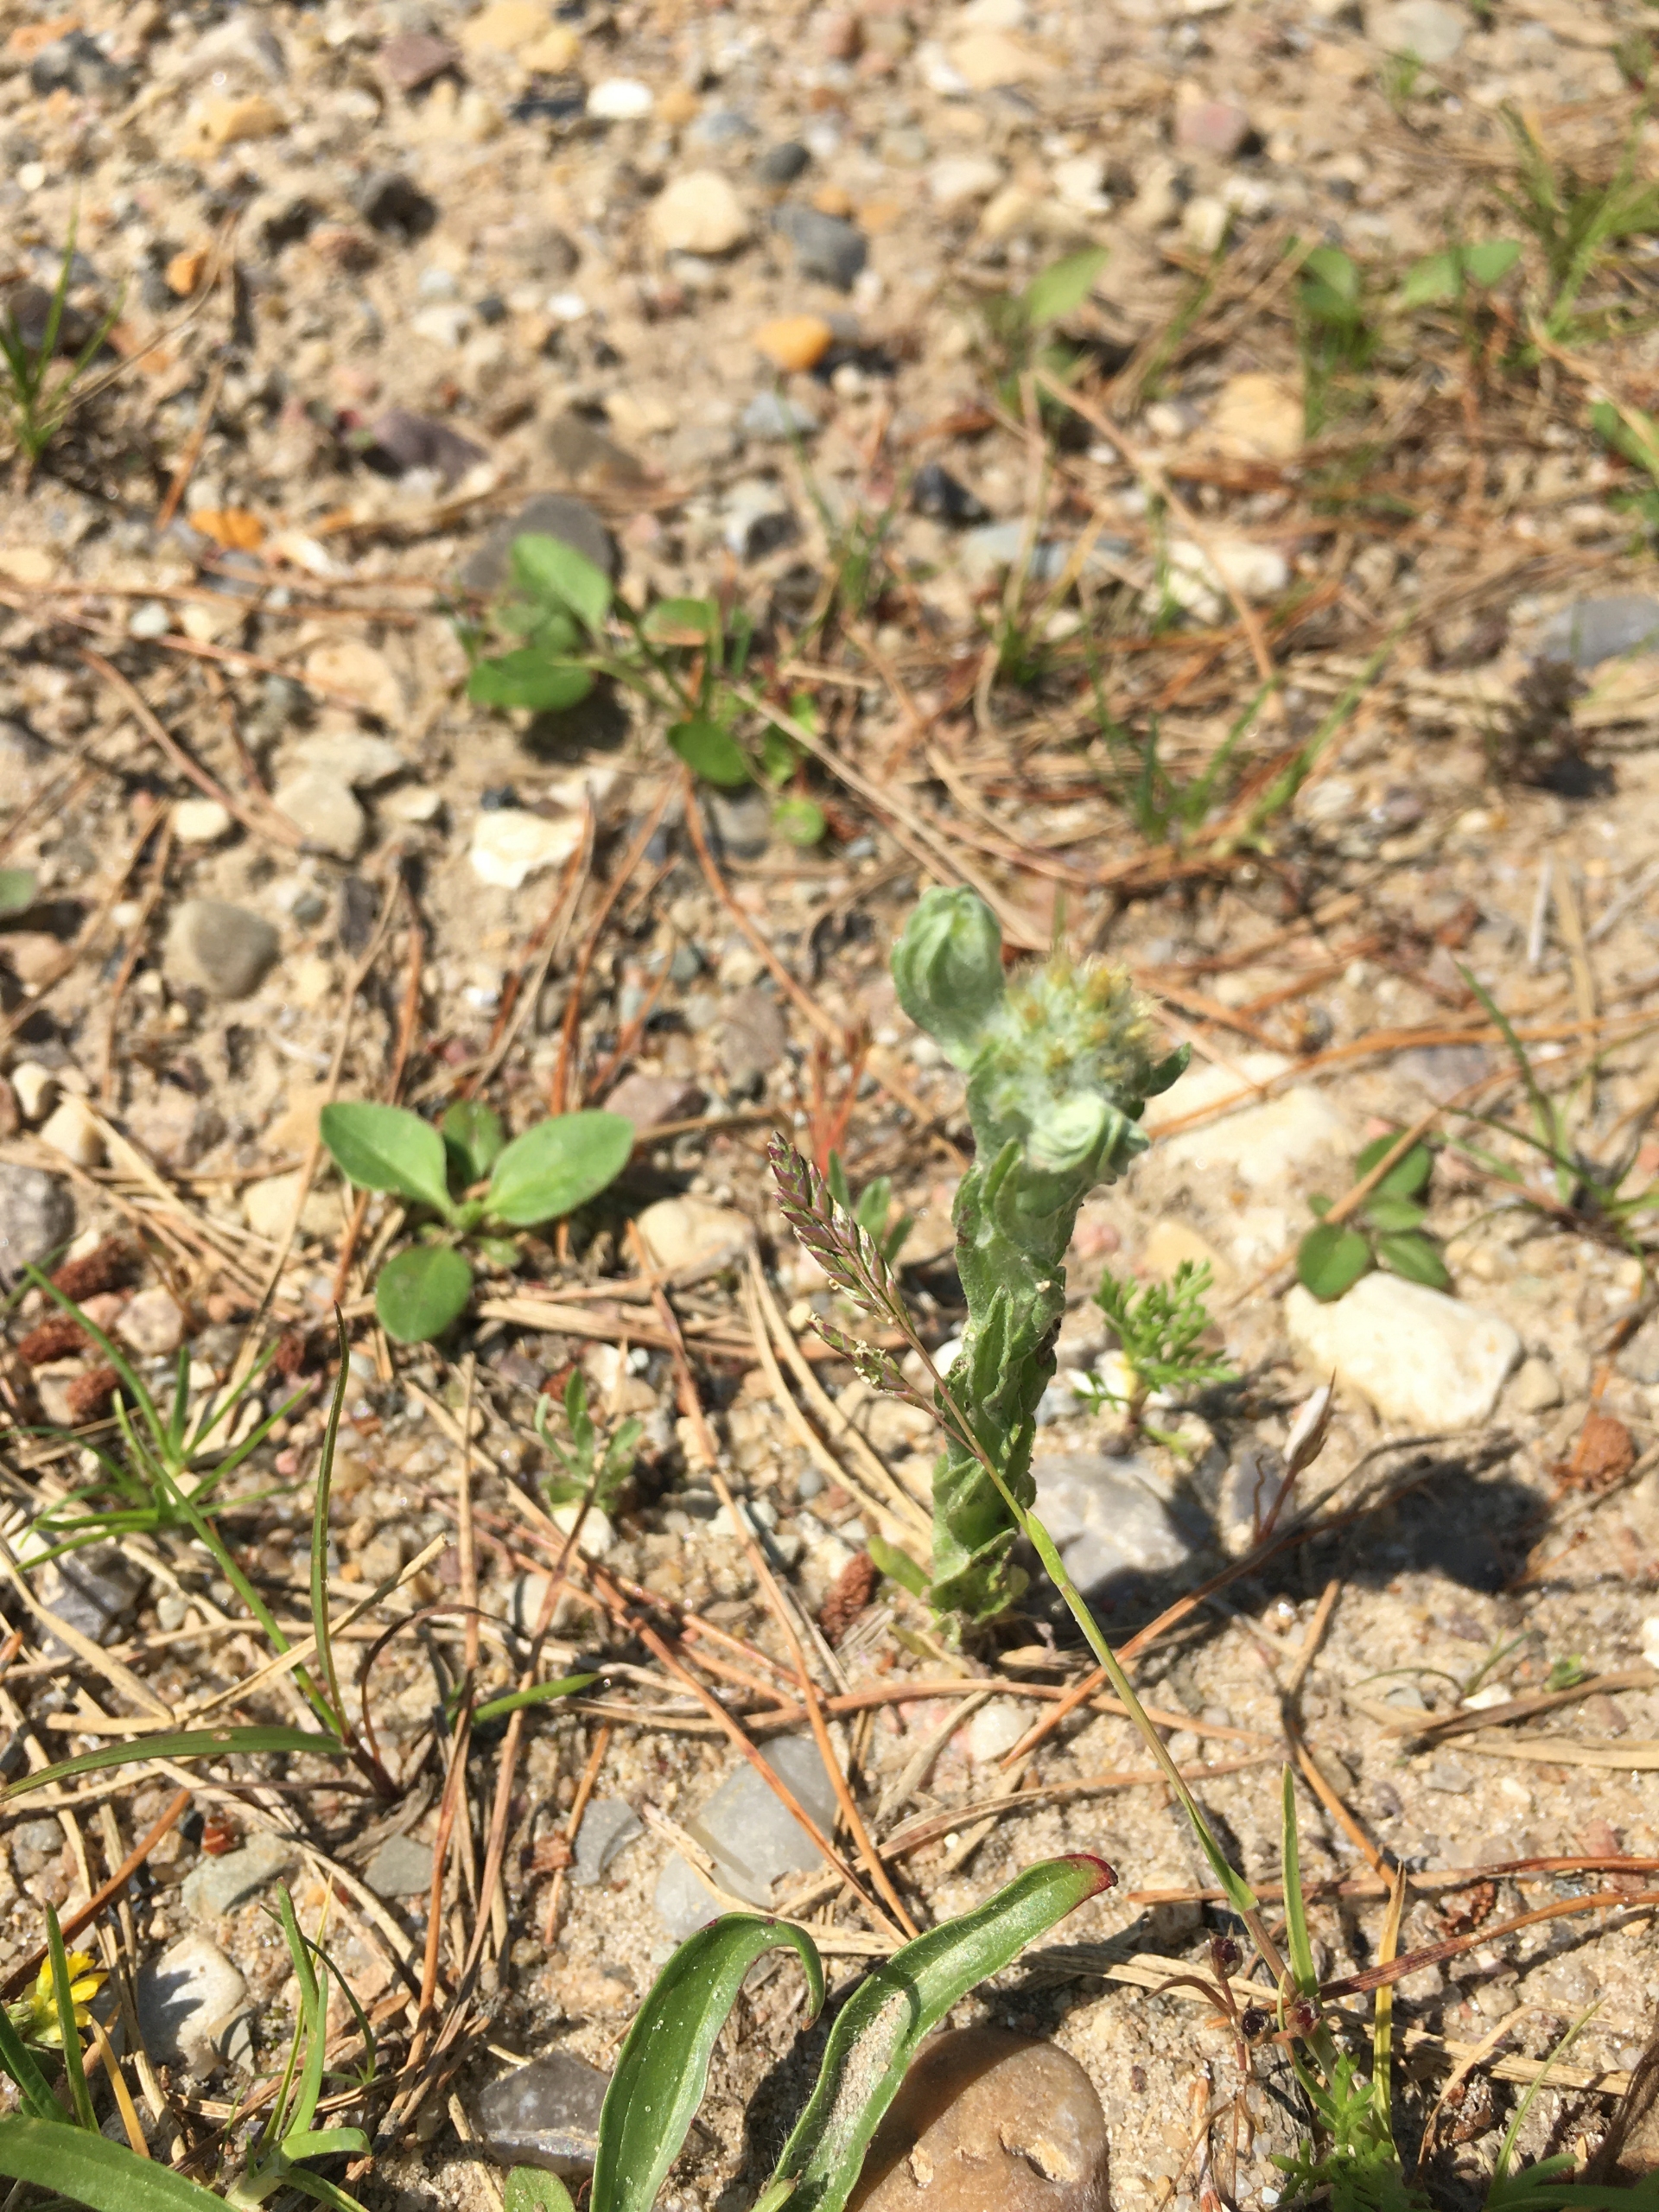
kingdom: Plantae
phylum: Tracheophyta
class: Magnoliopsida
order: Asterales
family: Asteraceae
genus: Filago
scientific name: Filago germanica
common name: Kugle-museurt
